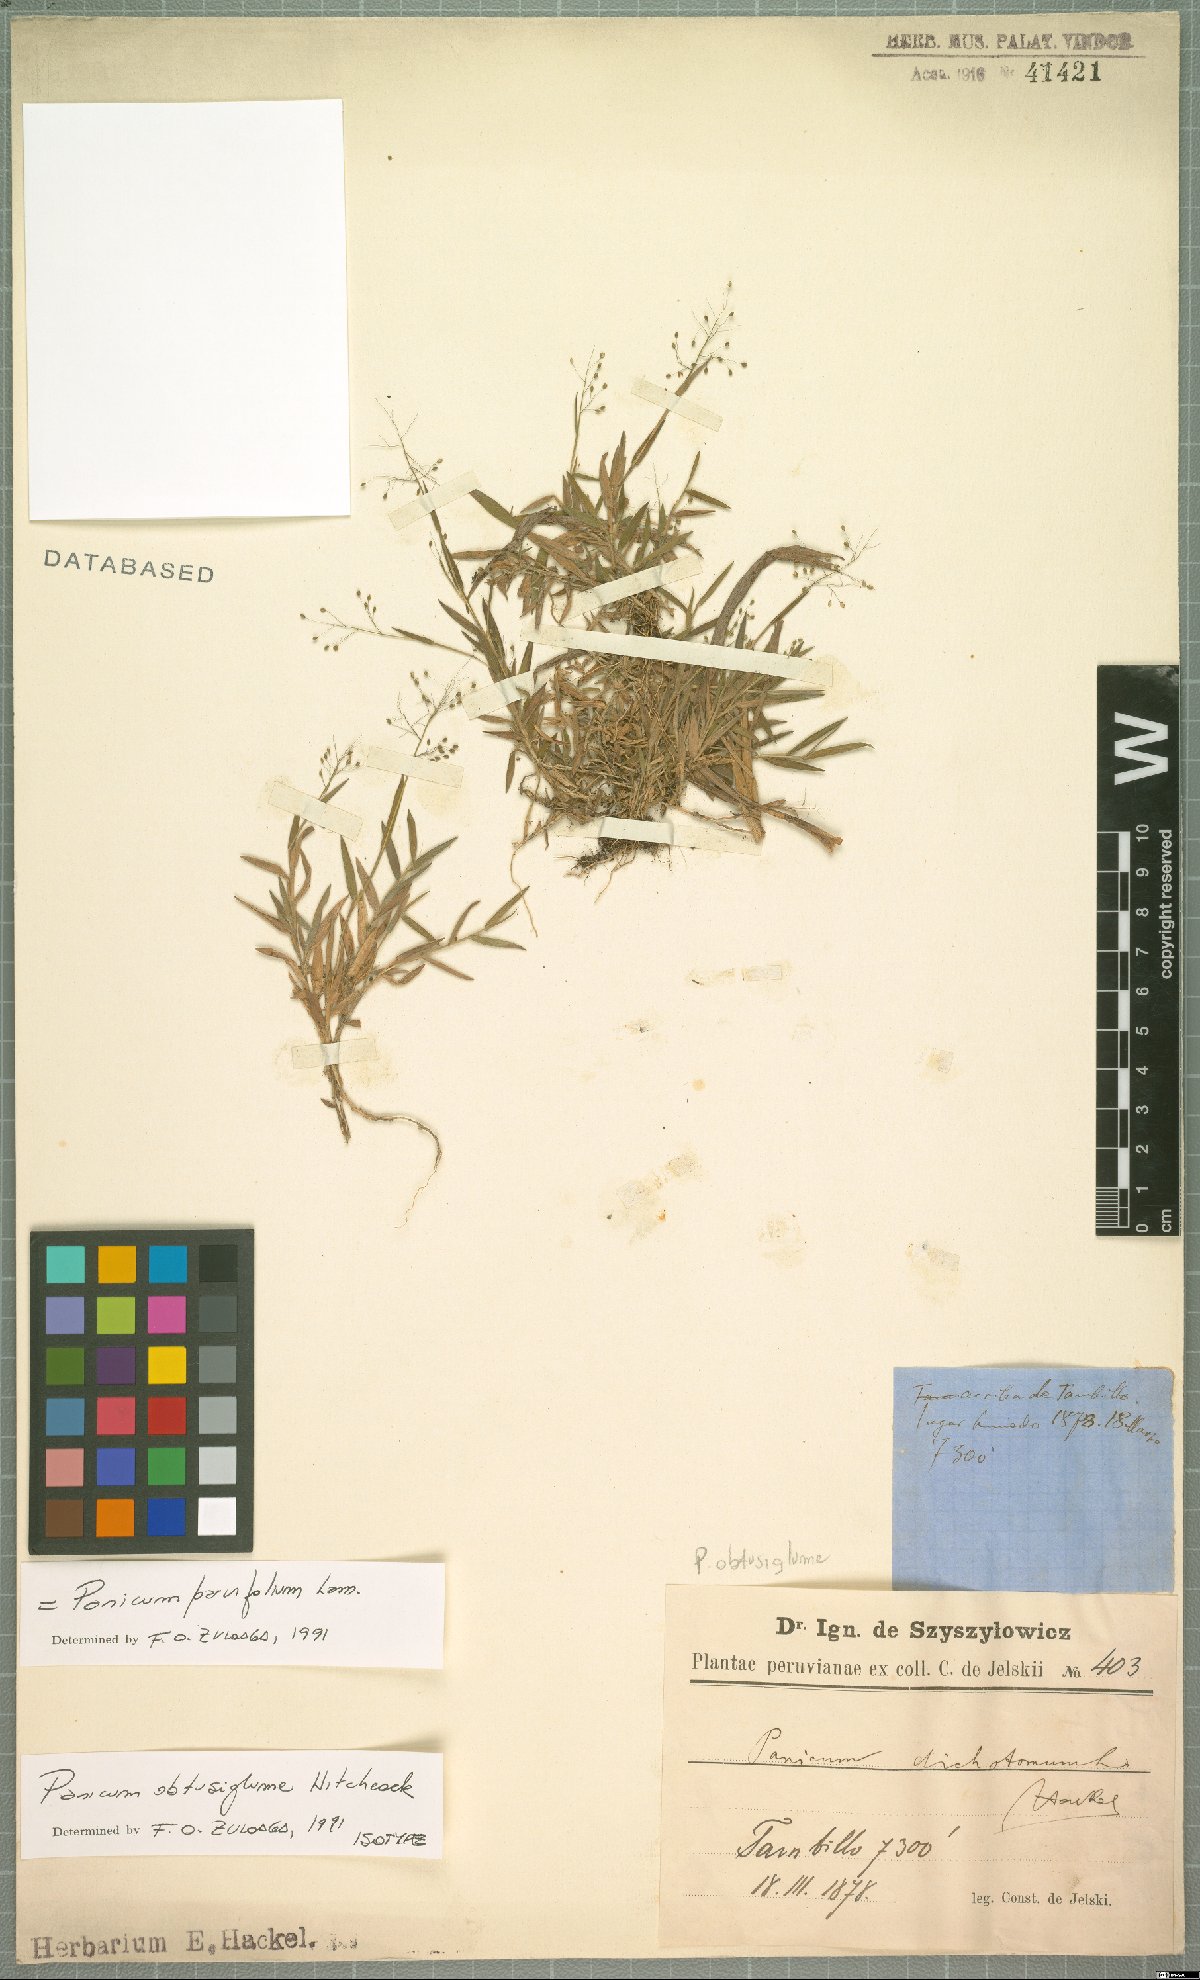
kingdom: Plantae
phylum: Tracheophyta
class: Liliopsida
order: Poales
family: Poaceae
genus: Trichanthecium
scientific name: Trichanthecium parvifolium
